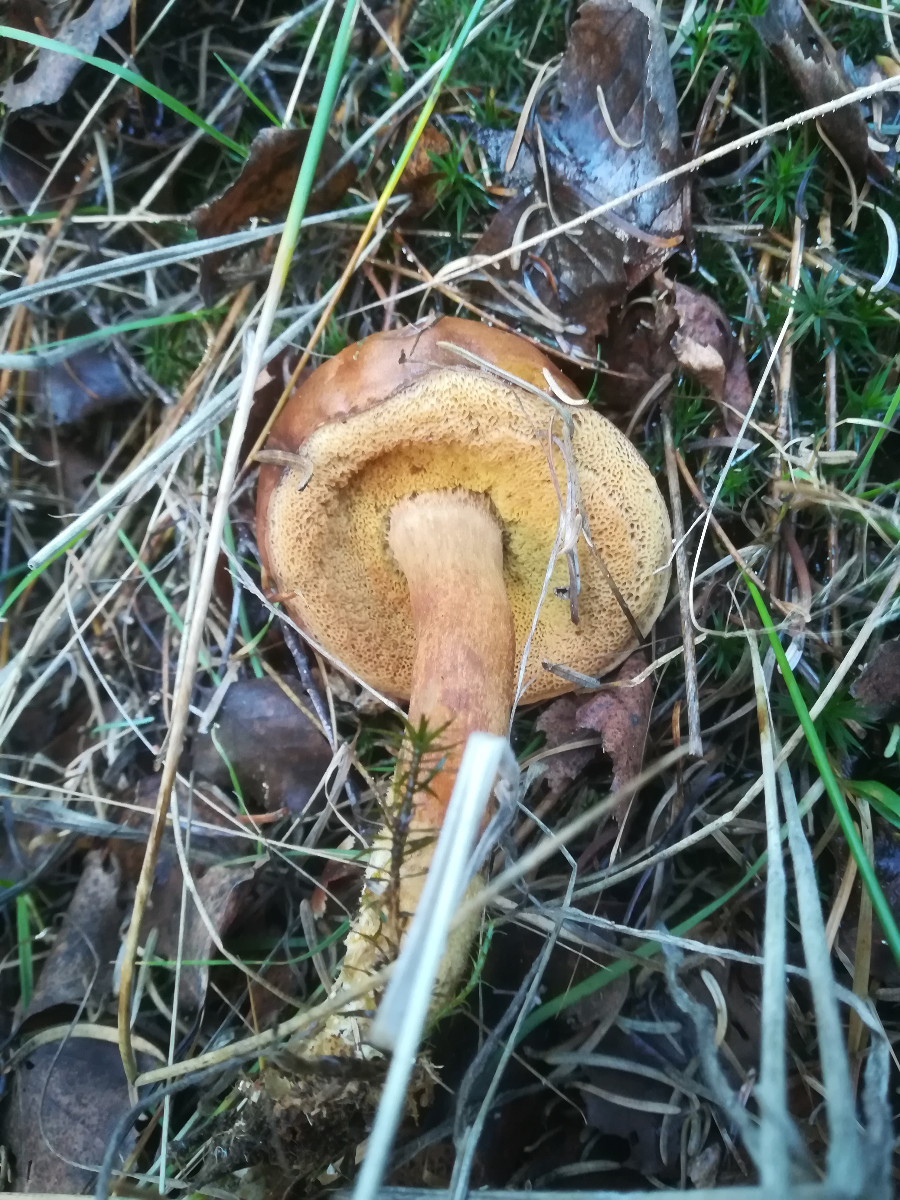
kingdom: Fungi
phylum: Basidiomycota
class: Agaricomycetes
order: Boletales
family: Boletaceae
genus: Imleria
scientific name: Imleria badia
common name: brunstokket rørhat
